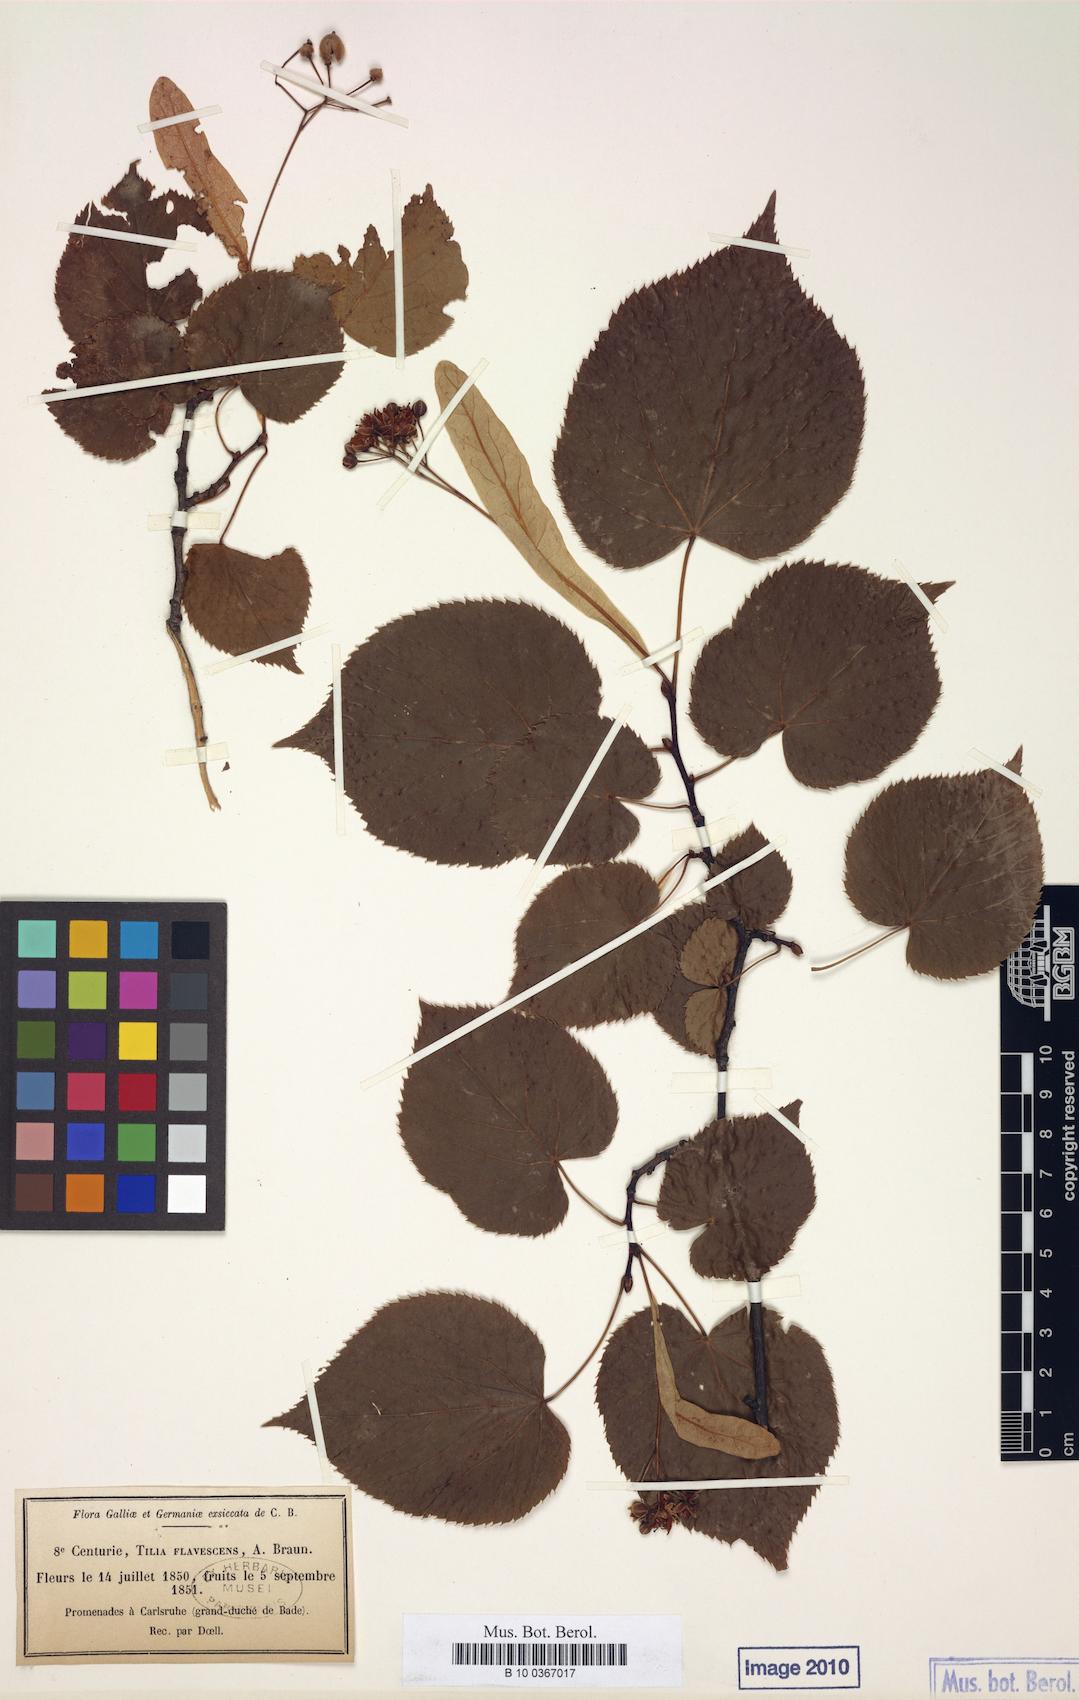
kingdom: Plantae
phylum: Tracheophyta
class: Magnoliopsida
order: Malvales
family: Malvaceae
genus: Tilia
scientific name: Tilia flavescens
